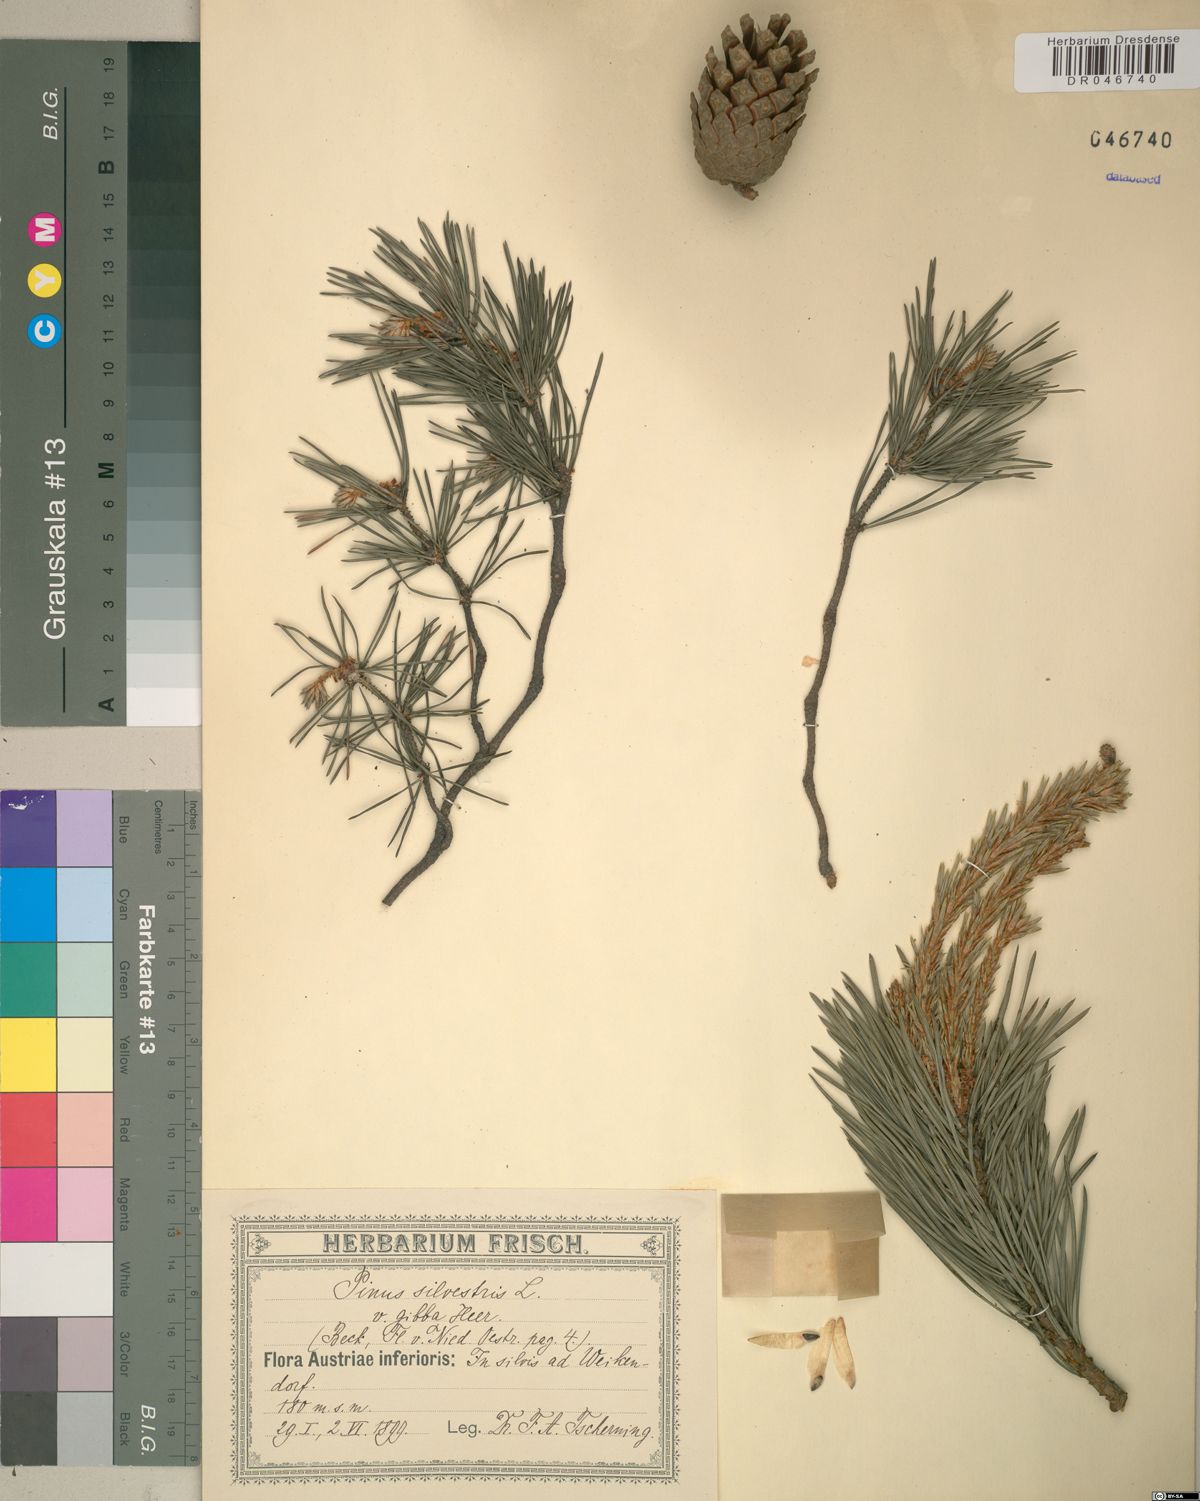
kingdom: Plantae
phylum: Tracheophyta
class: Pinopsida
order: Pinales
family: Pinaceae
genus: Pinus
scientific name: Pinus sylvestris
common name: Scots pine
